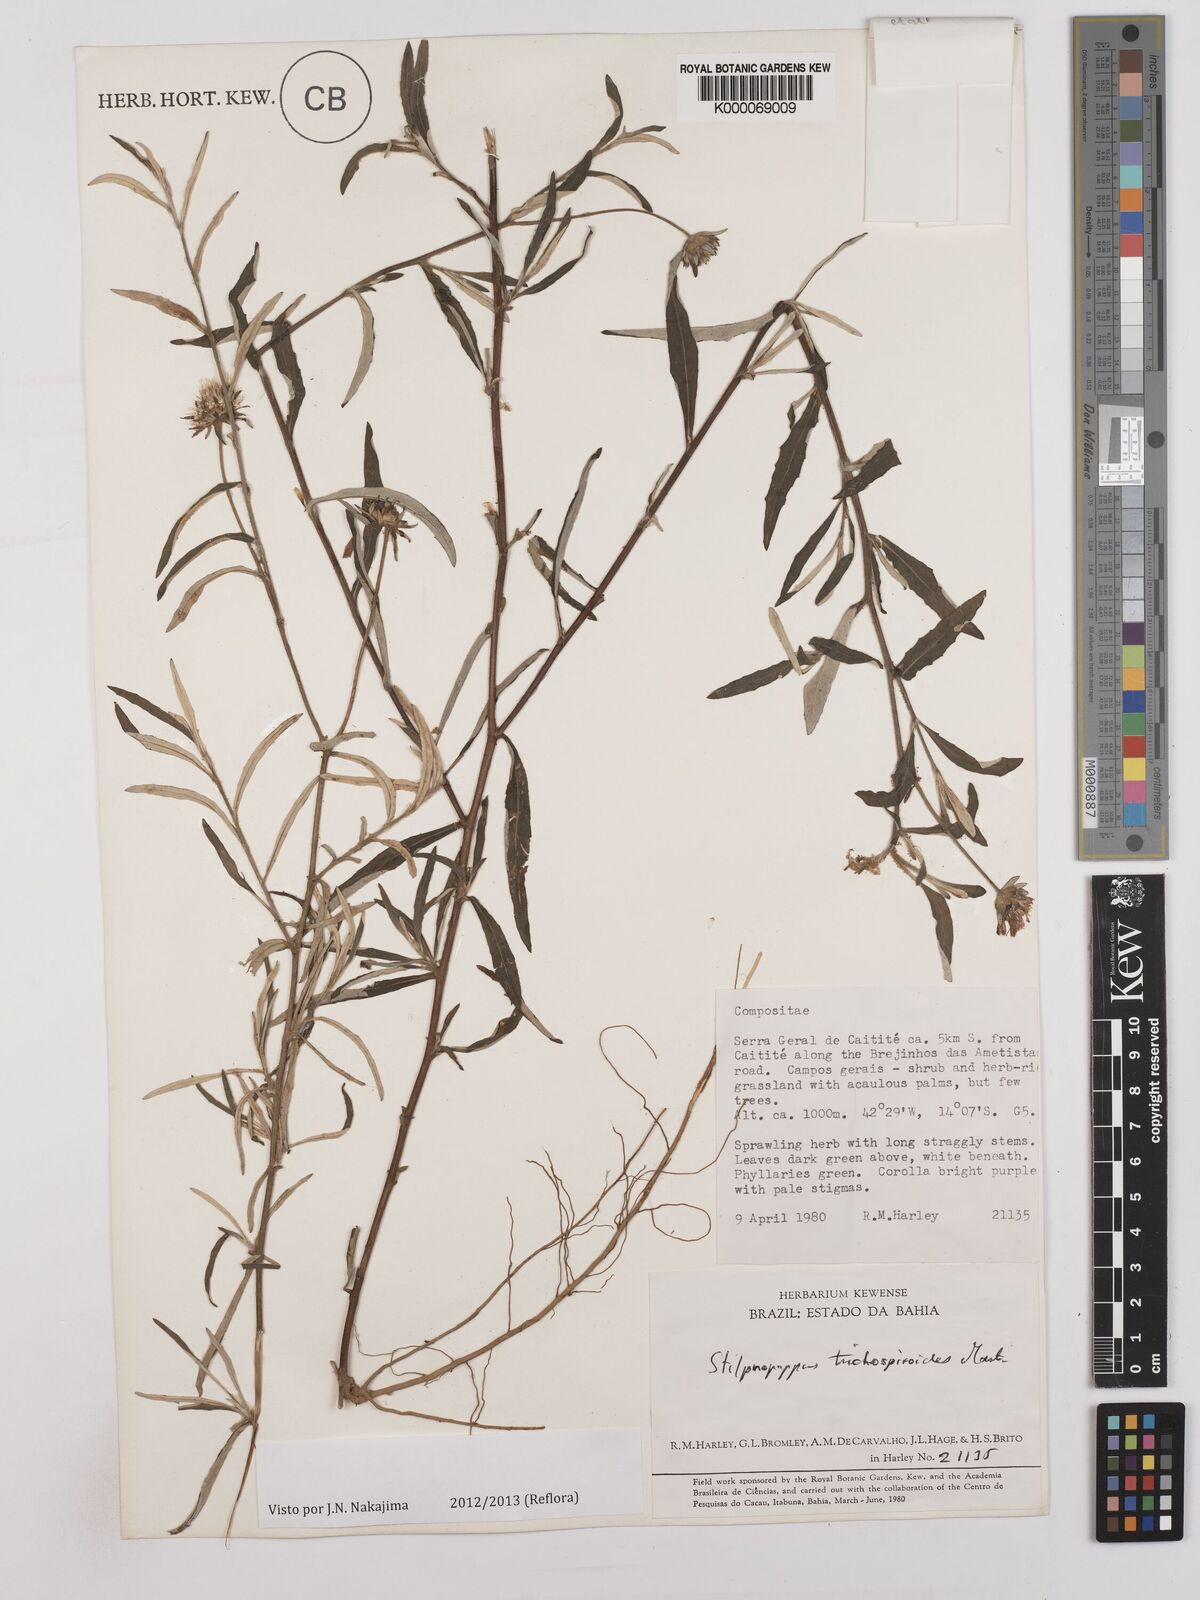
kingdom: Plantae
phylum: Tracheophyta
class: Magnoliopsida
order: Asterales
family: Asteraceae
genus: Stilpnopappus
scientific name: Stilpnopappus trichospiroides
